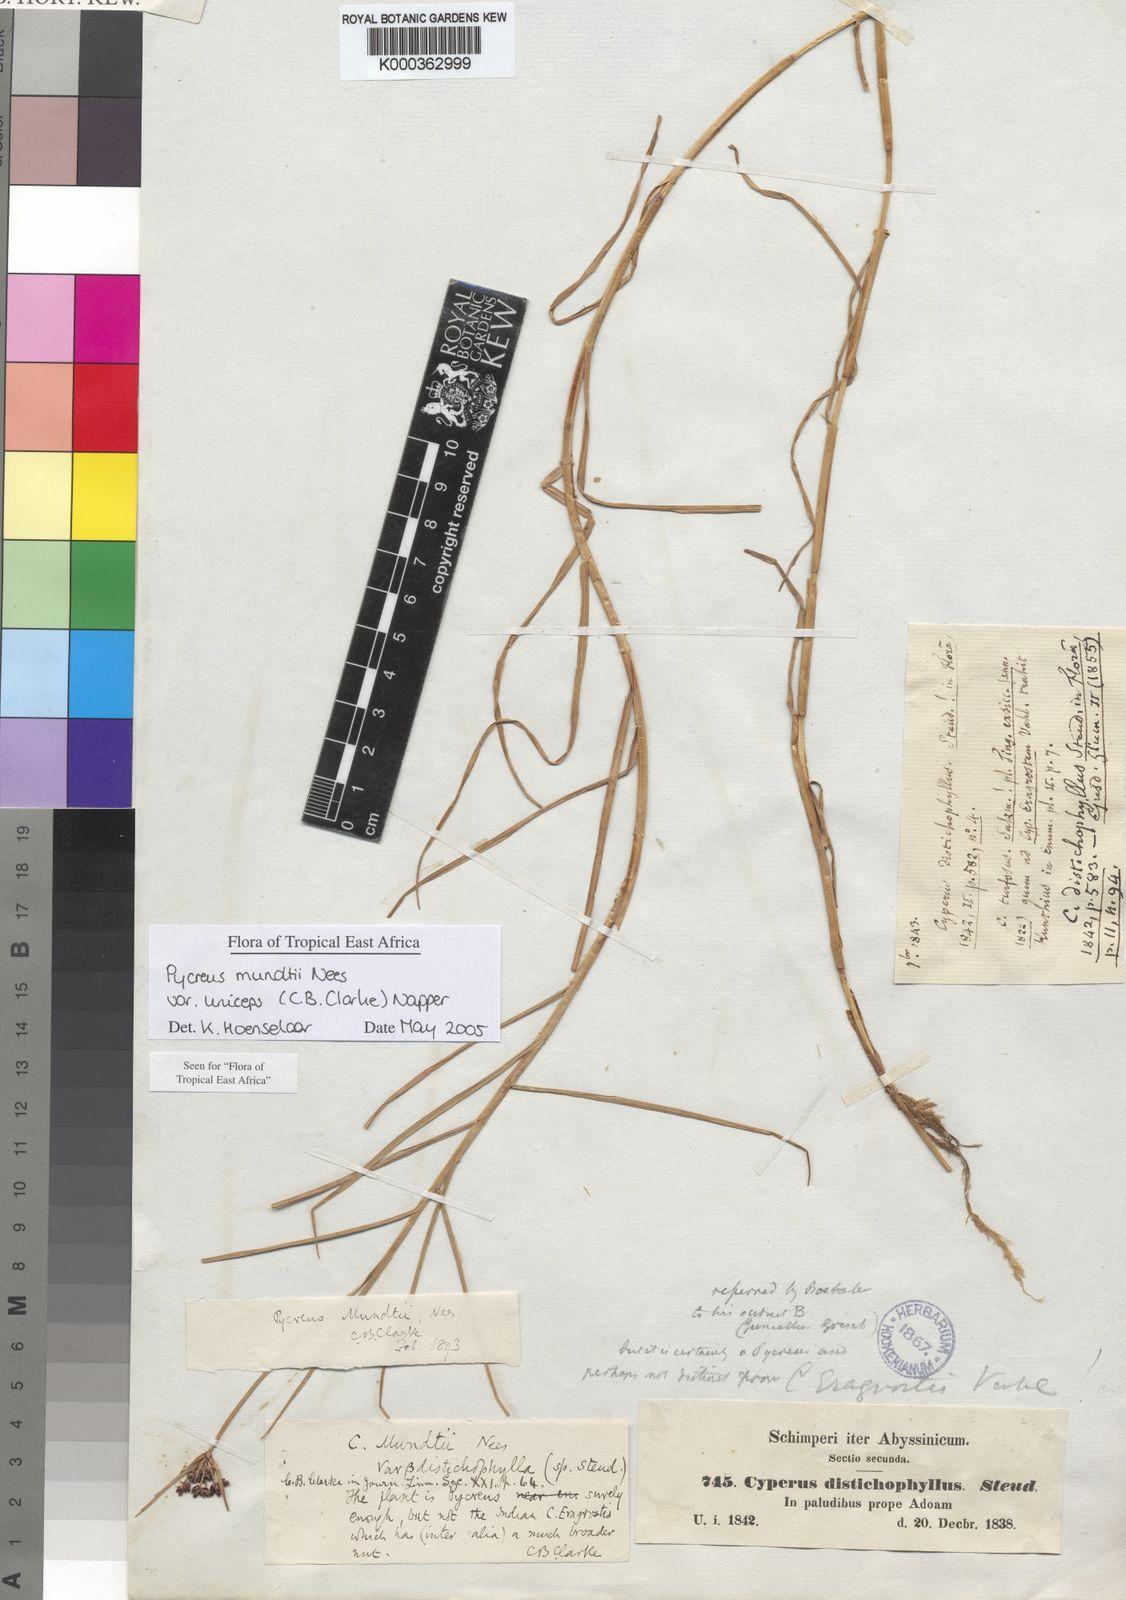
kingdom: Plantae
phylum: Tracheophyta
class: Liliopsida
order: Poales
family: Cyperaceae
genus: Cyperus
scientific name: Cyperus mundii
